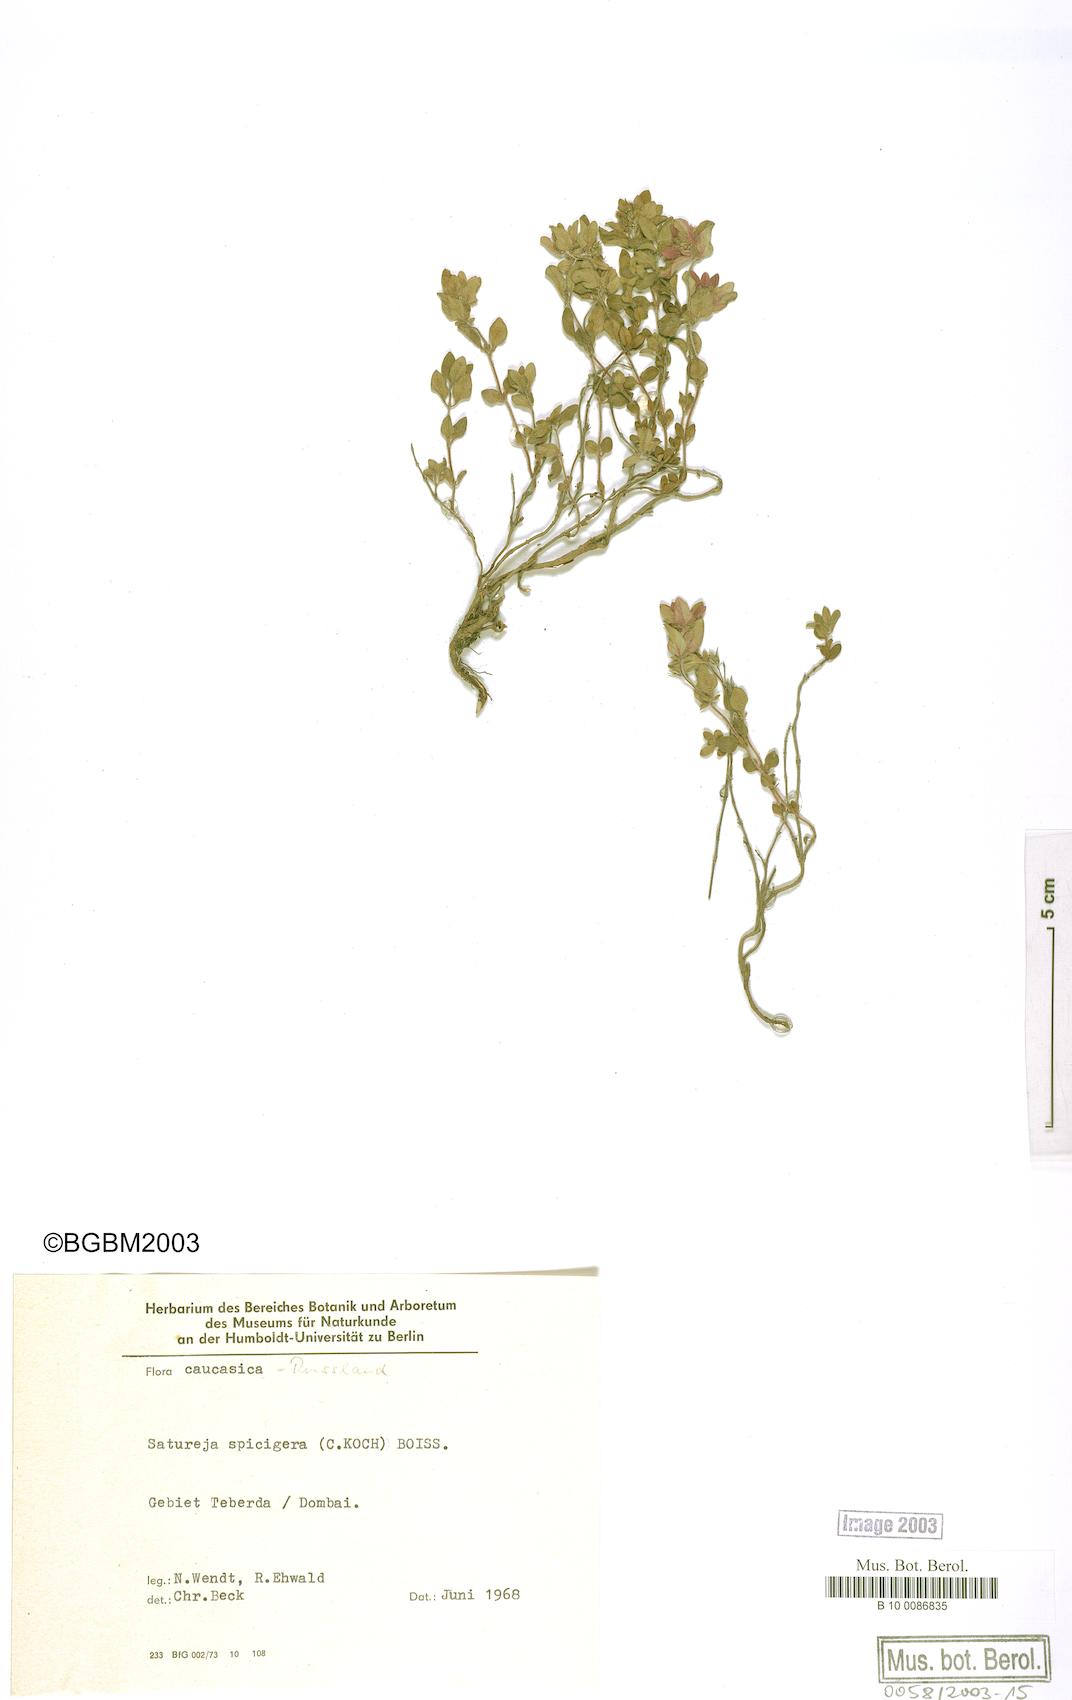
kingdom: Plantae
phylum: Tracheophyta
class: Magnoliopsida
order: Lamiales
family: Lamiaceae
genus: Satureja
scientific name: Satureja spicigera
